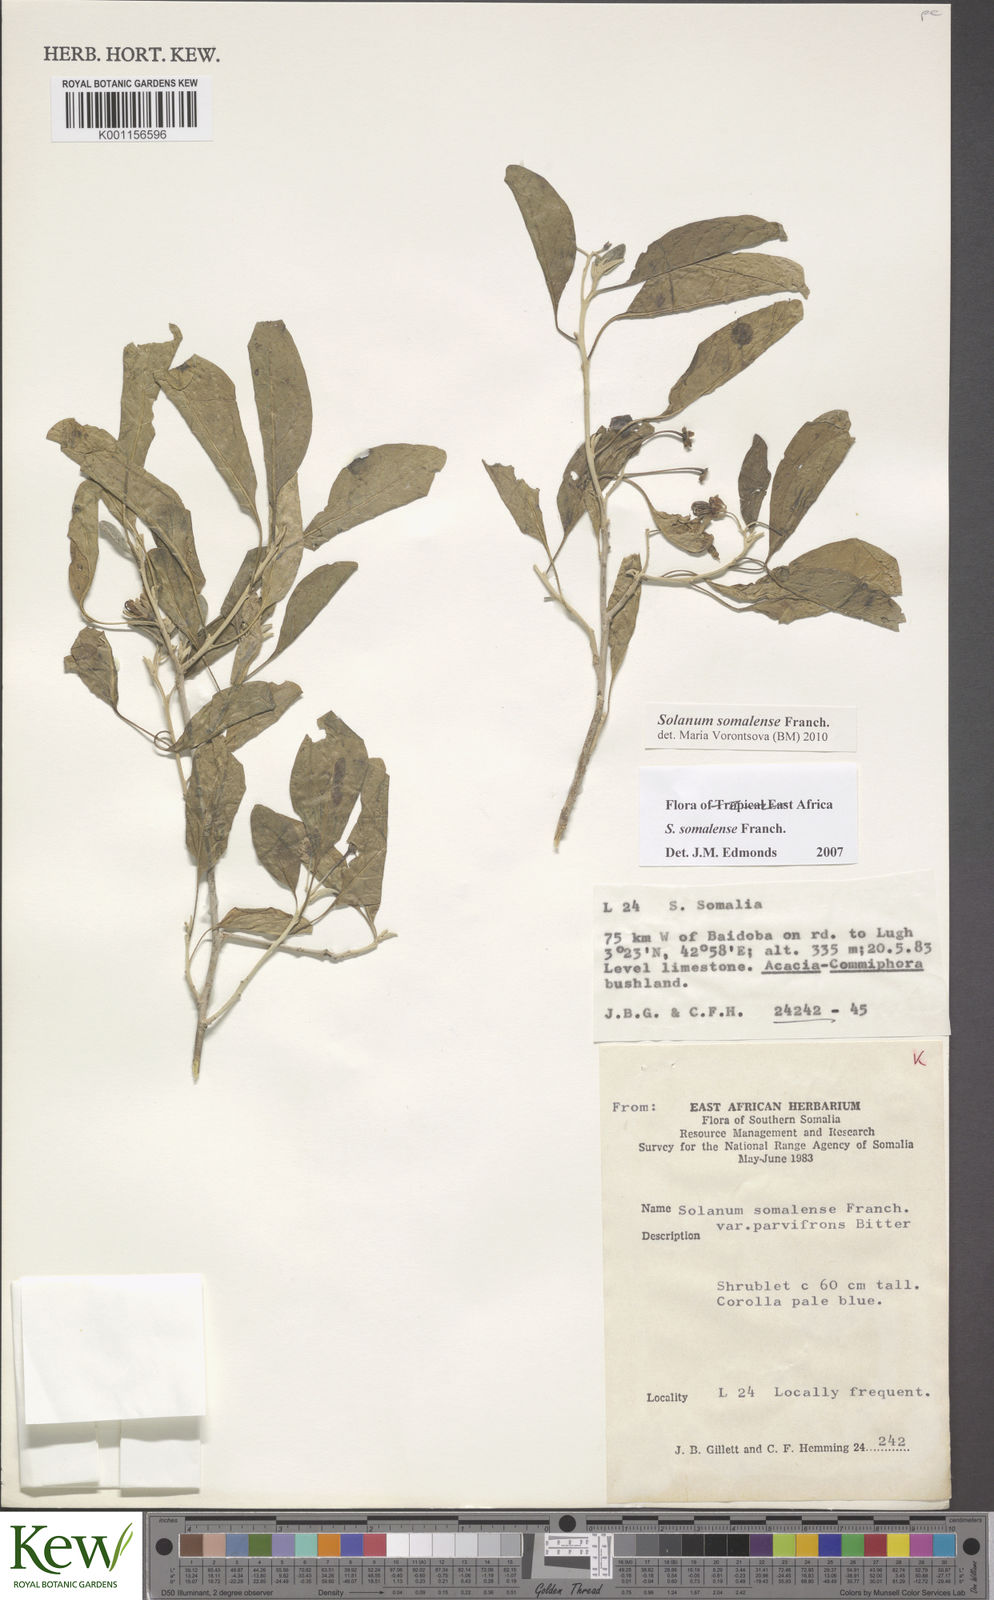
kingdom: Plantae
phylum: Tracheophyta
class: Magnoliopsida
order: Solanales
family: Solanaceae
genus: Solanum
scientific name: Solanum somalense
